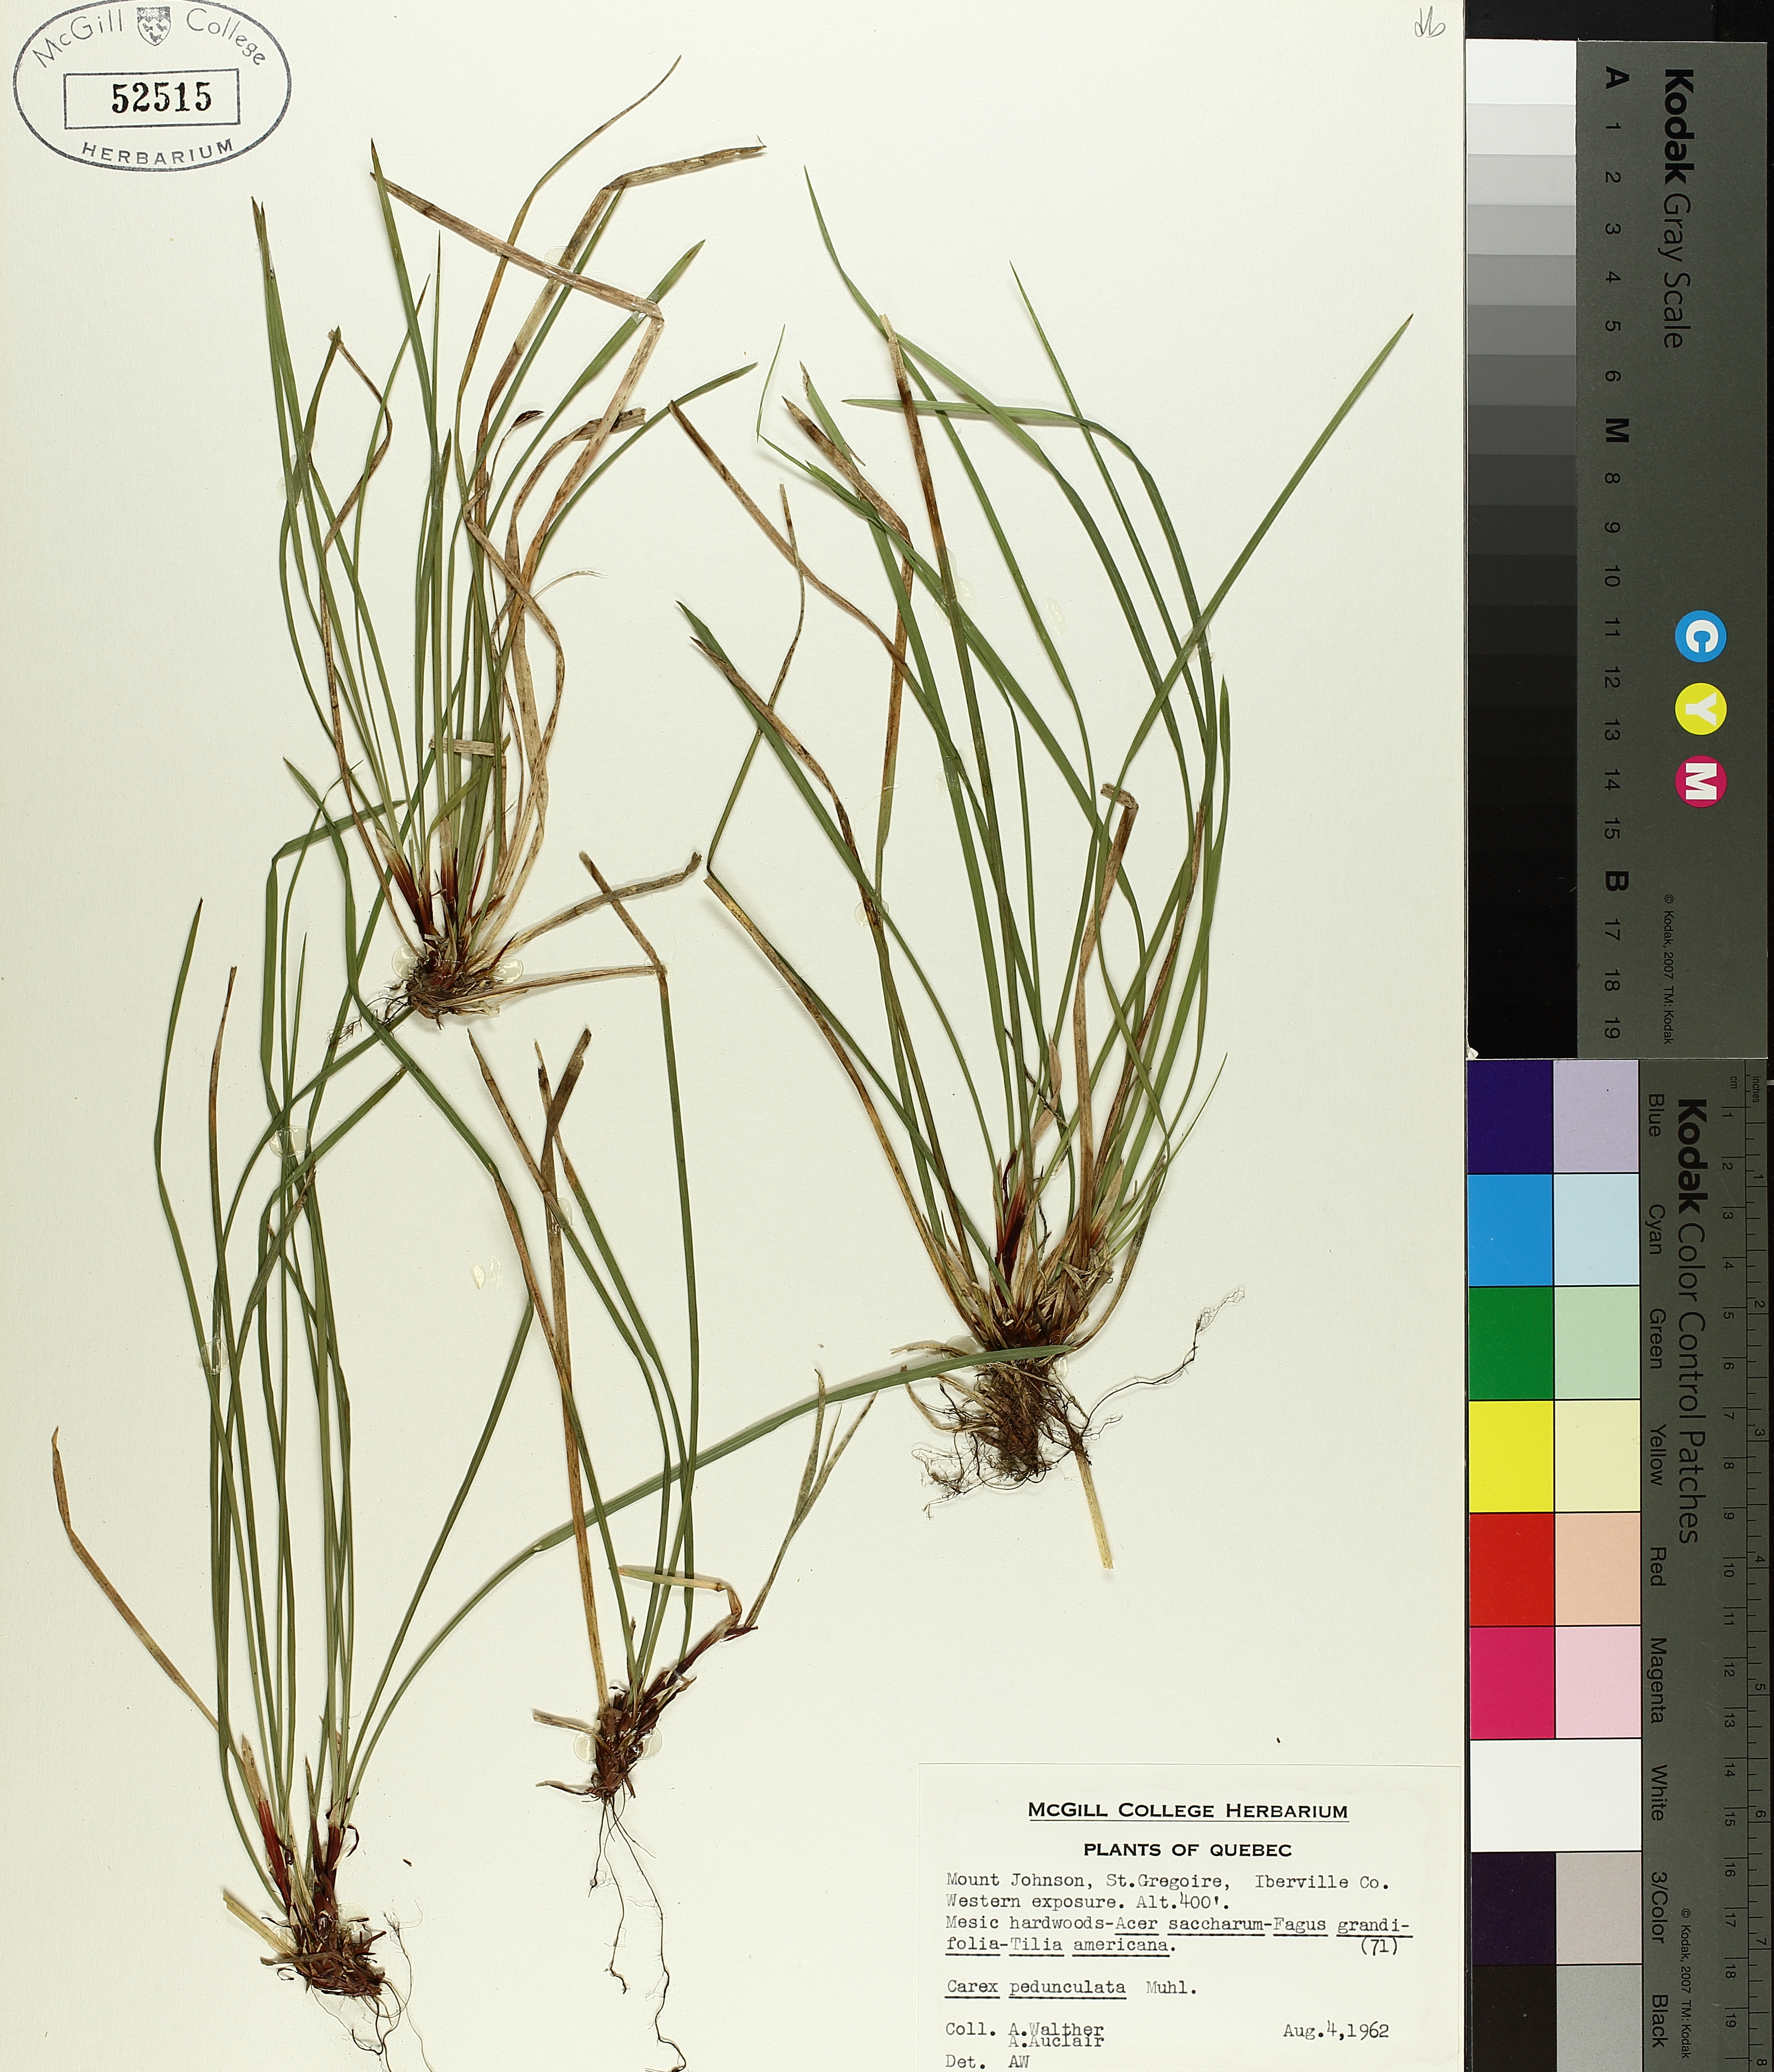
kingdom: Plantae
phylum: Tracheophyta
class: Liliopsida
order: Poales
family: Cyperaceae
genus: Carex
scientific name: Carex pedunculata
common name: Pedunculate sedge
